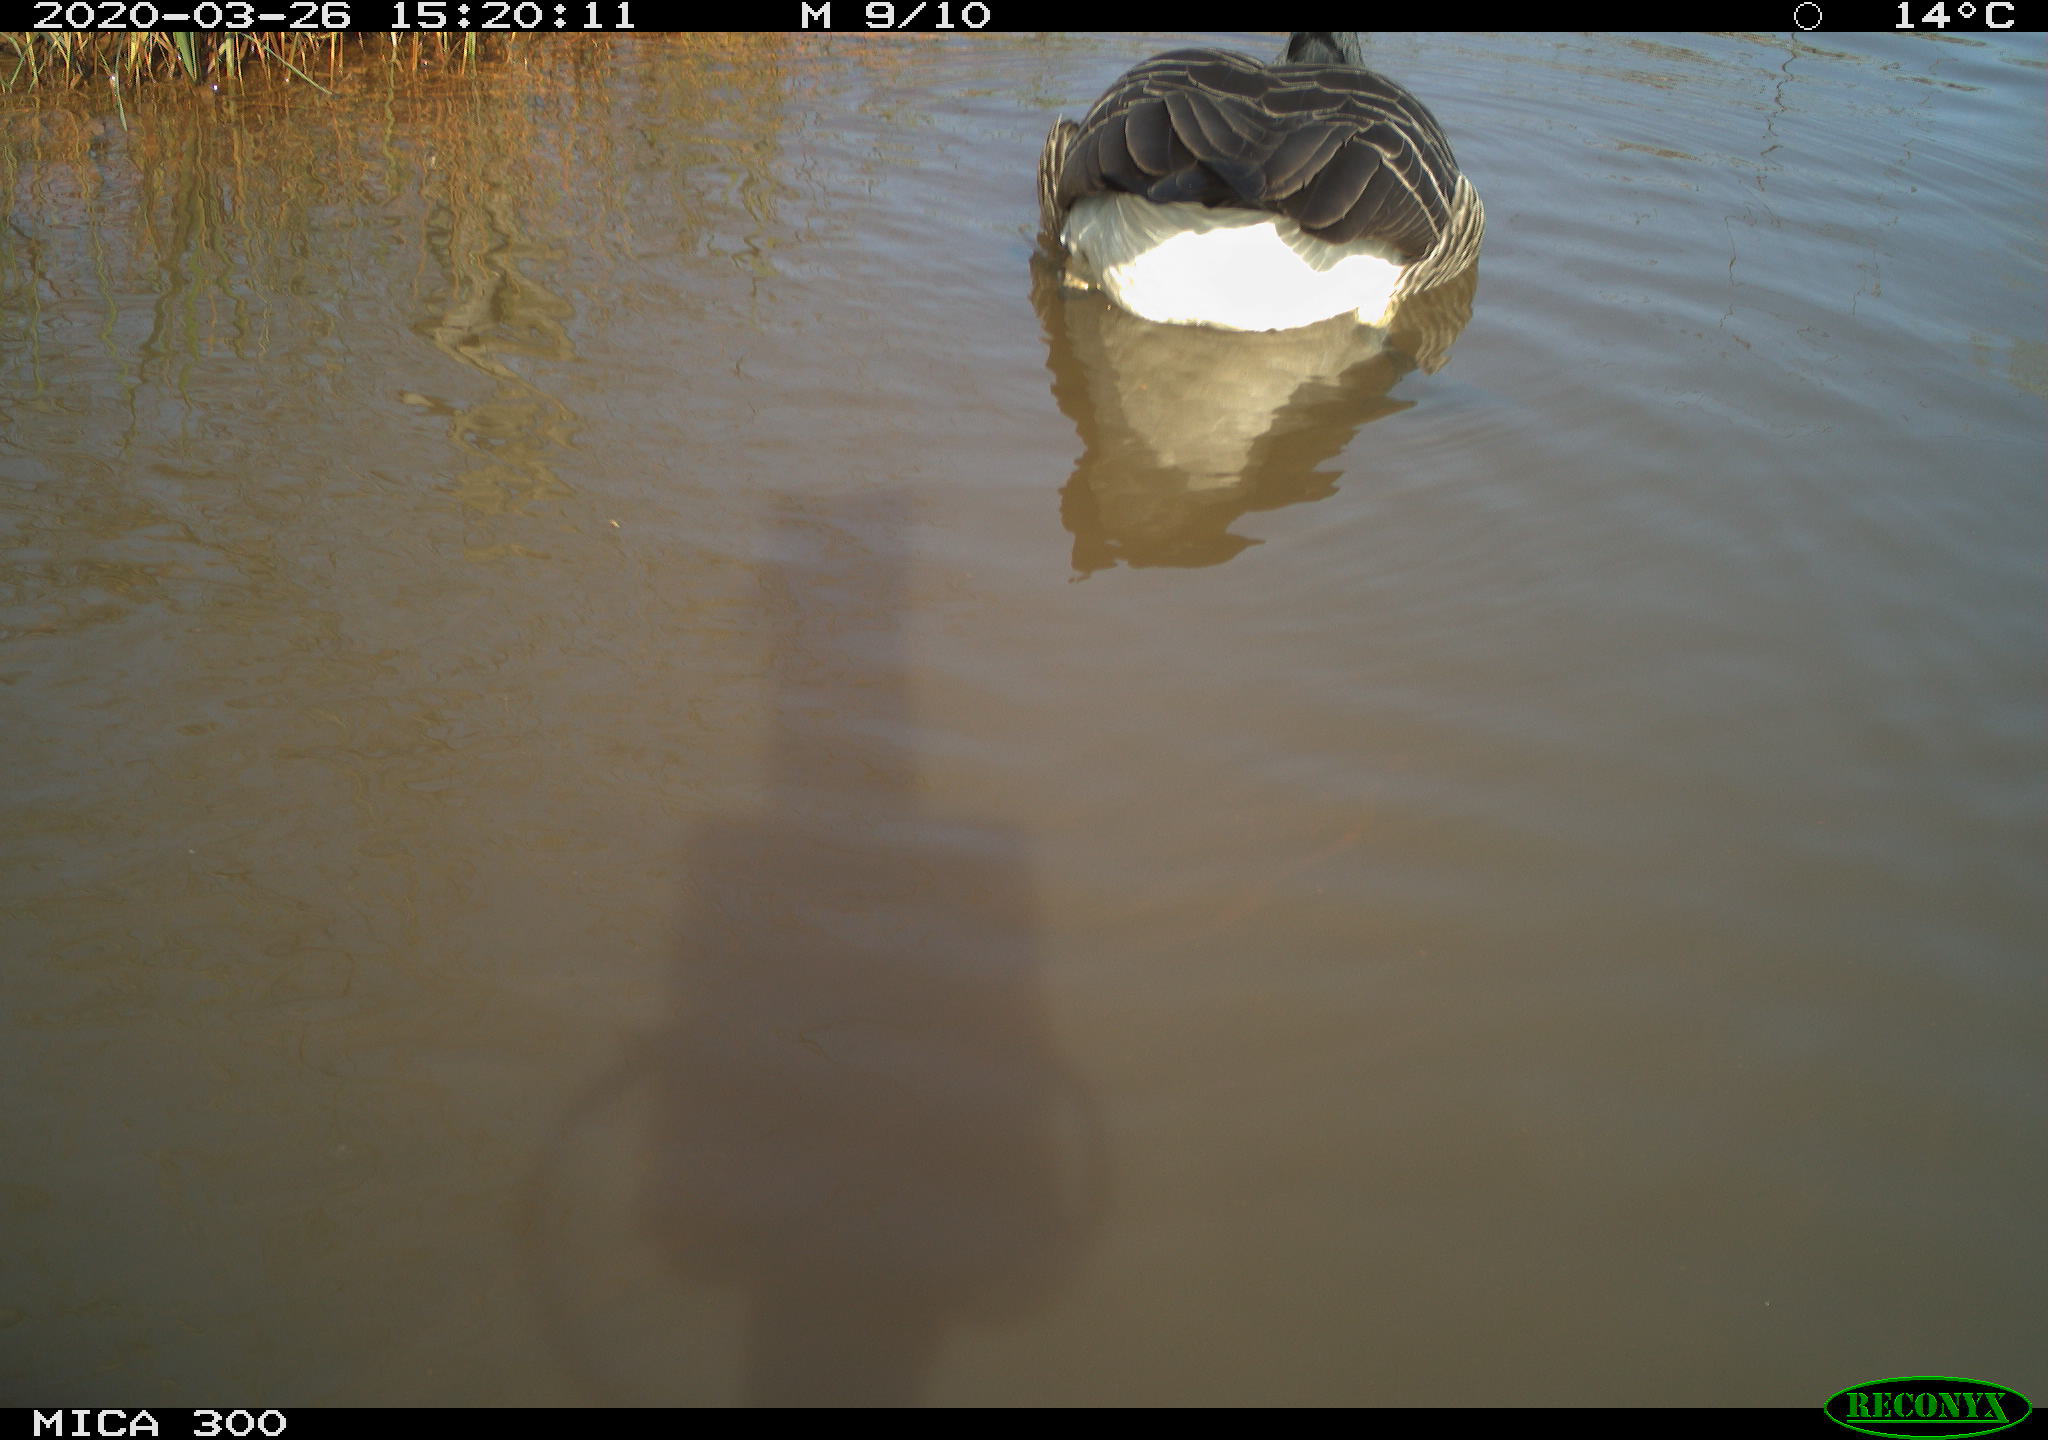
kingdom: Animalia
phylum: Chordata
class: Aves
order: Anseriformes
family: Anatidae
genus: Branta
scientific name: Branta canadensis
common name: Canada goose
